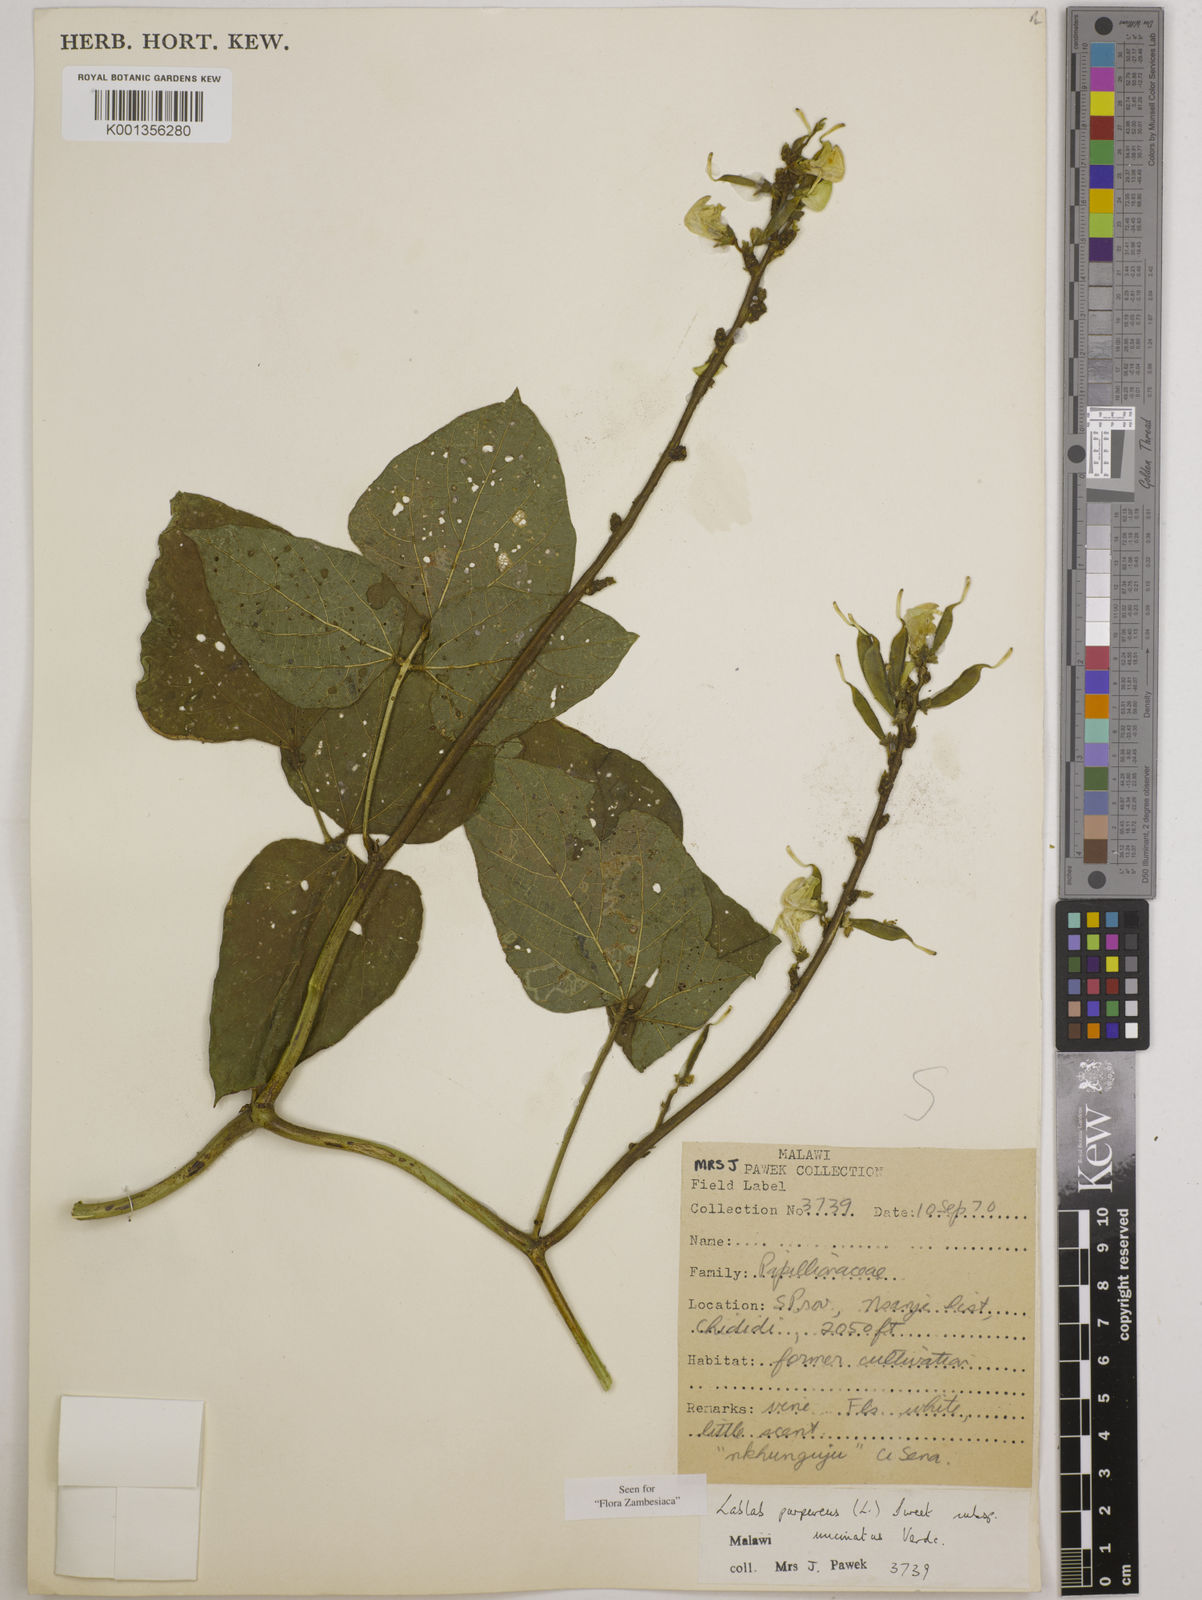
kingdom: Plantae
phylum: Tracheophyta
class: Magnoliopsida
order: Fabales
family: Fabaceae
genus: Lablab
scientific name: Lablab
